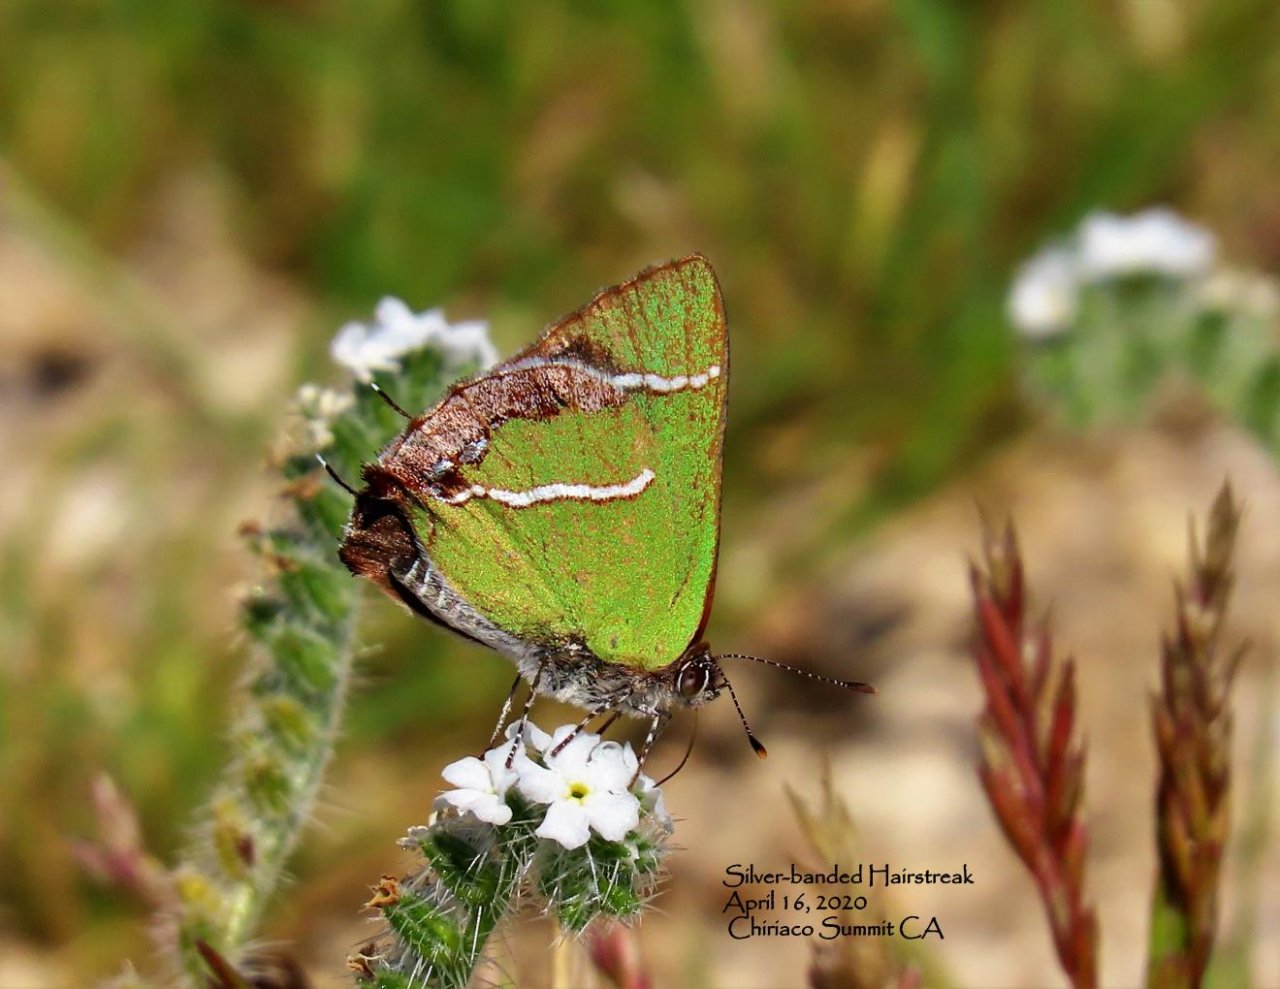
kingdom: Animalia
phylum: Arthropoda
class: Insecta
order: Lepidoptera
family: Lycaenidae
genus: Chlorostrymon
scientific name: Chlorostrymon simaethis
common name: Silver-banded Hairstreak
